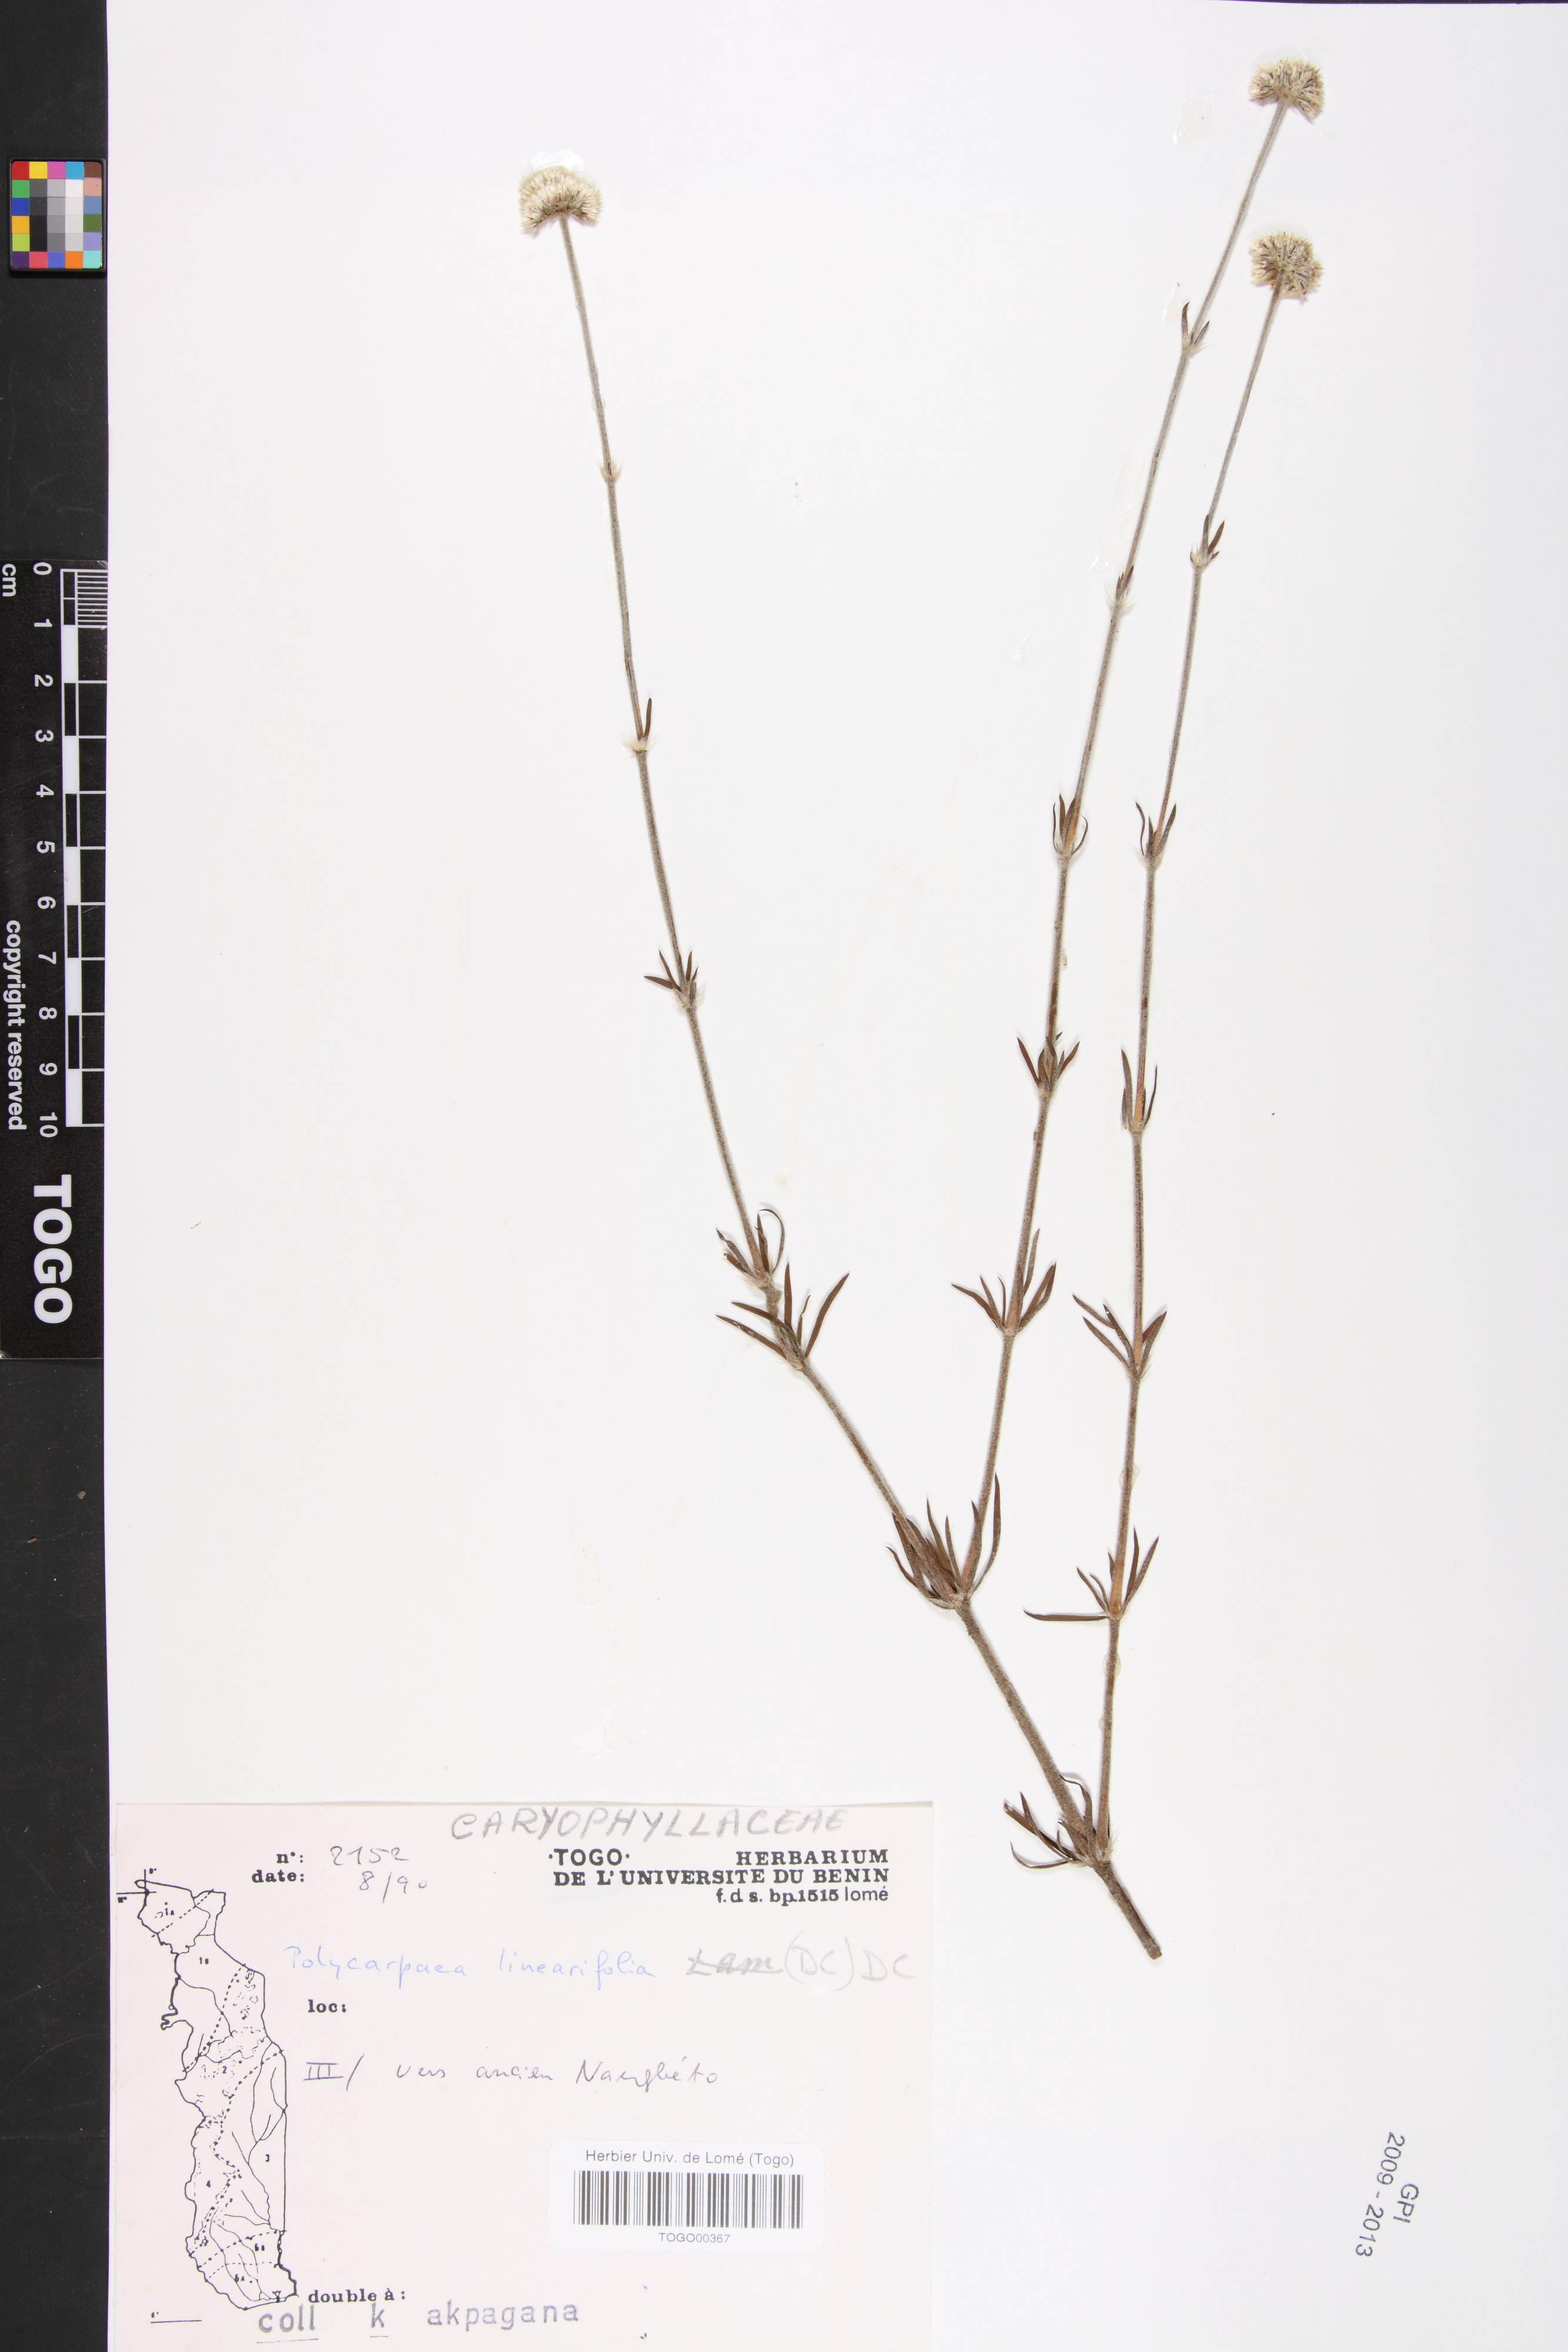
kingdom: Plantae
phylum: Tracheophyta
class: Magnoliopsida
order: Caryophyllales
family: Caryophyllaceae
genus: Polycarpaea
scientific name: Polycarpaea linearifolia
